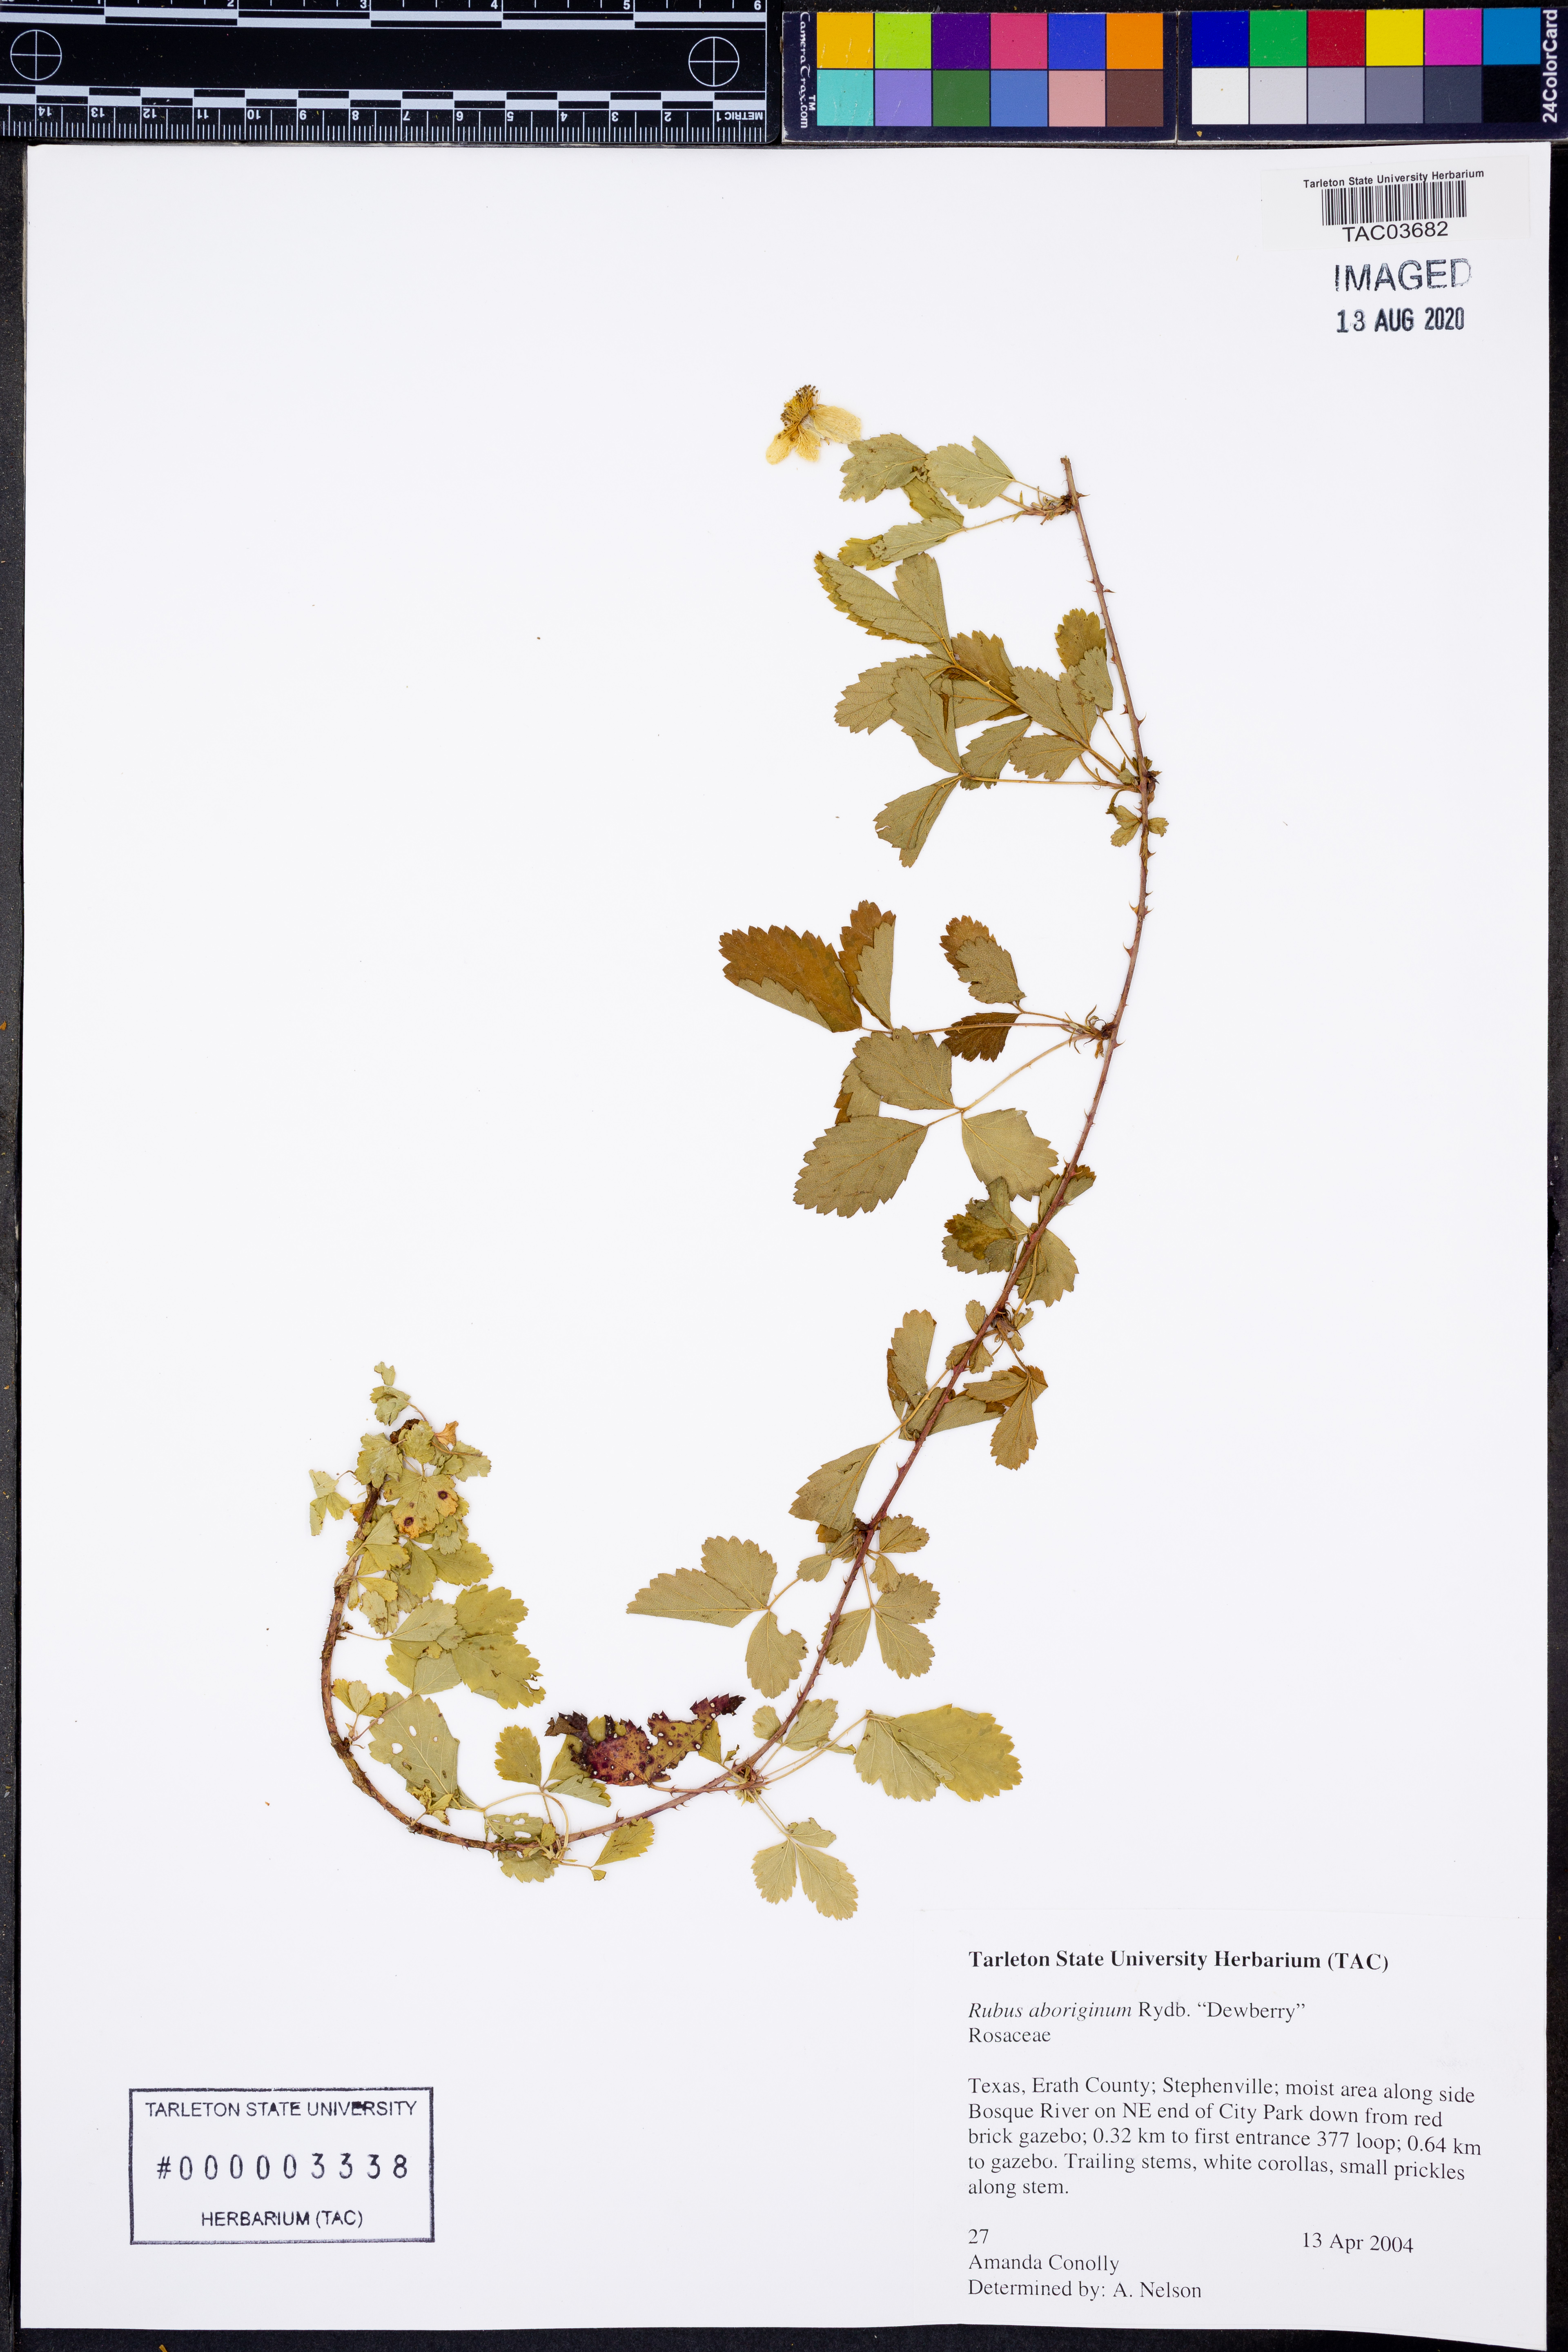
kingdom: Plantae
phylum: Tracheophyta
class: Magnoliopsida
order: Rosales
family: Rosaceae
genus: Rubus
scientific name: Rubus aboriginum
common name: Mayes dewberry
